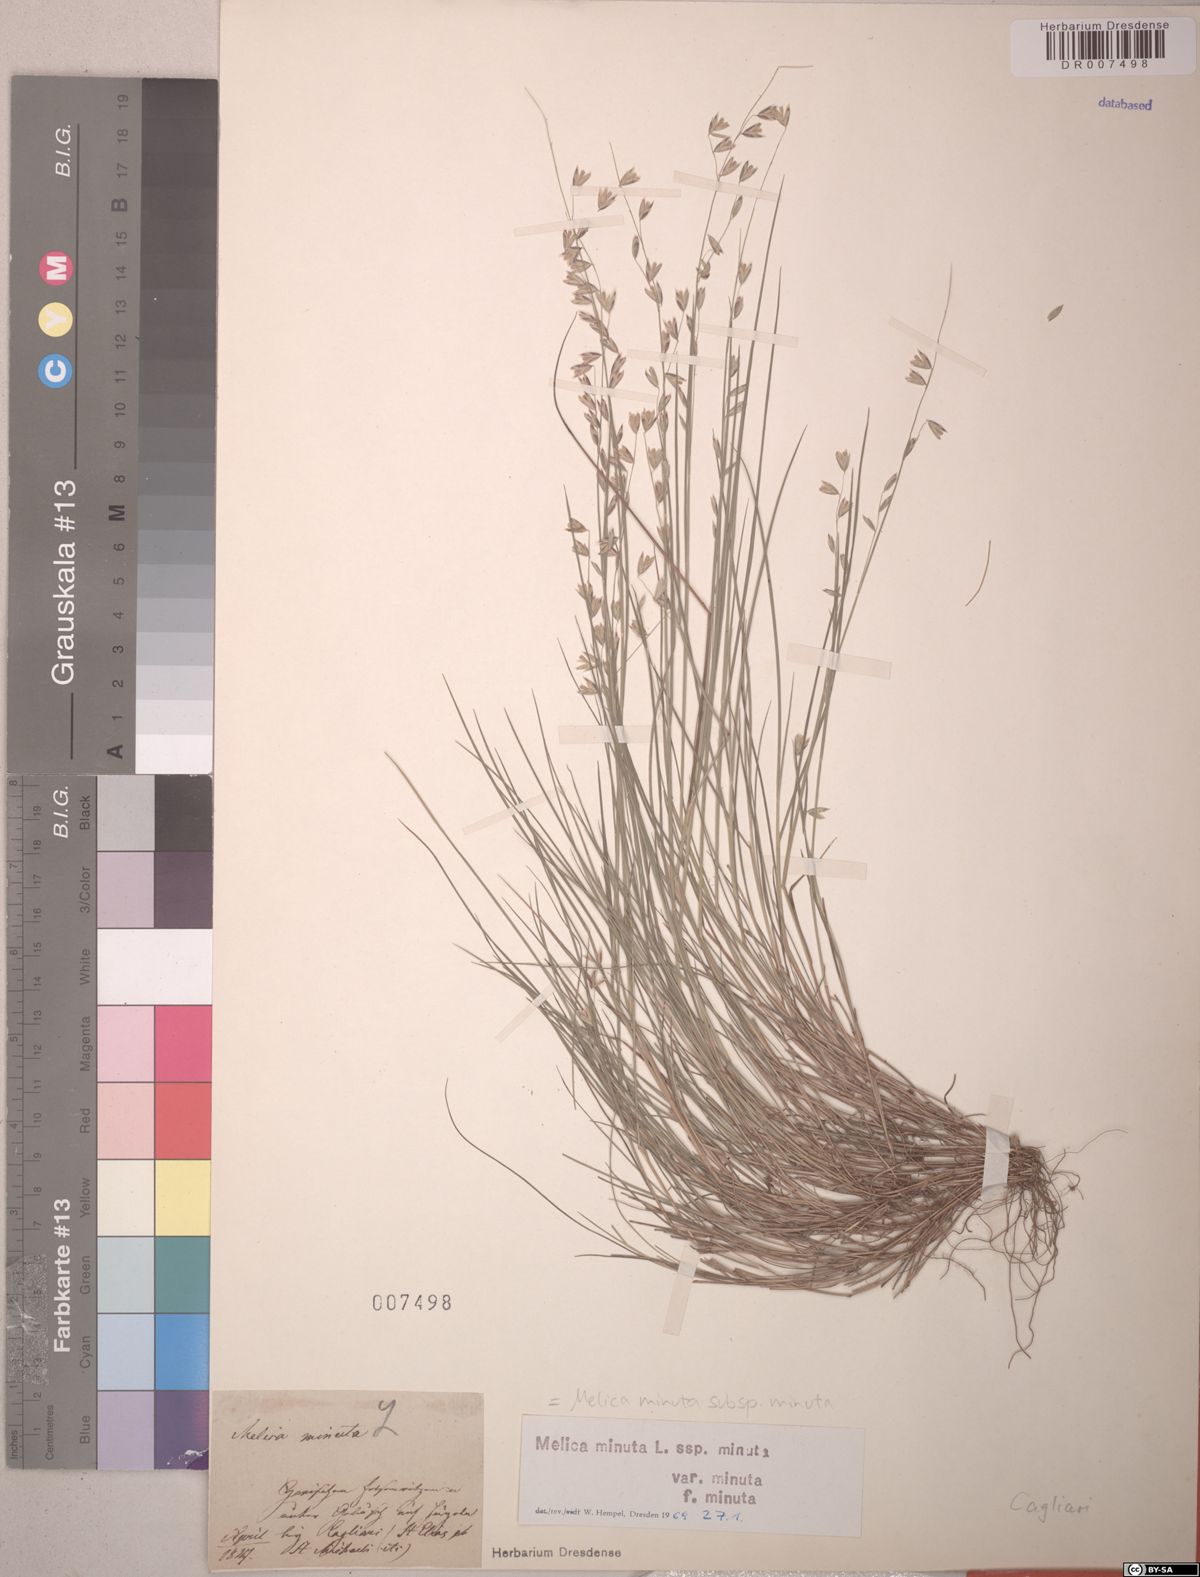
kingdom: Plantae
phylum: Tracheophyta
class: Liliopsida
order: Poales
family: Poaceae
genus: Melica
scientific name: Melica minuta
